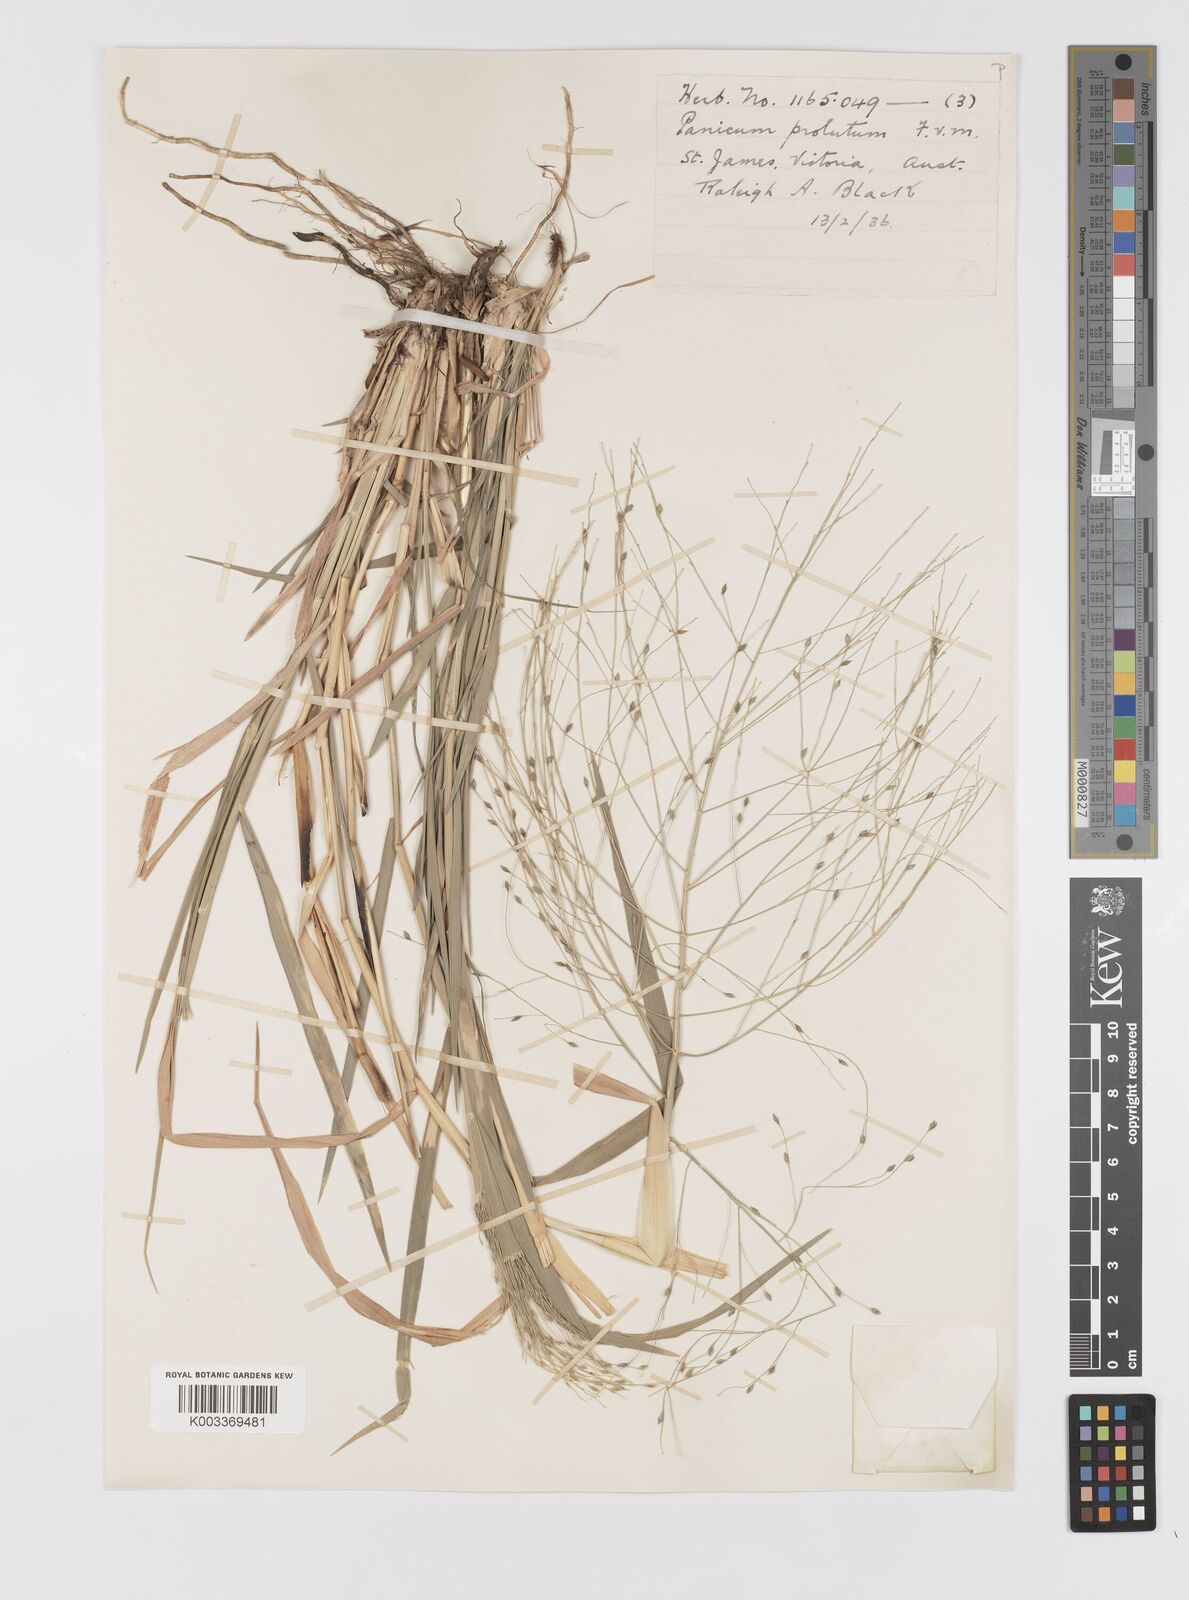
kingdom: Plantae
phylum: Tracheophyta
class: Liliopsida
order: Poales
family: Poaceae
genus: Walwhalleya
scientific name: Walwhalleya proluta
